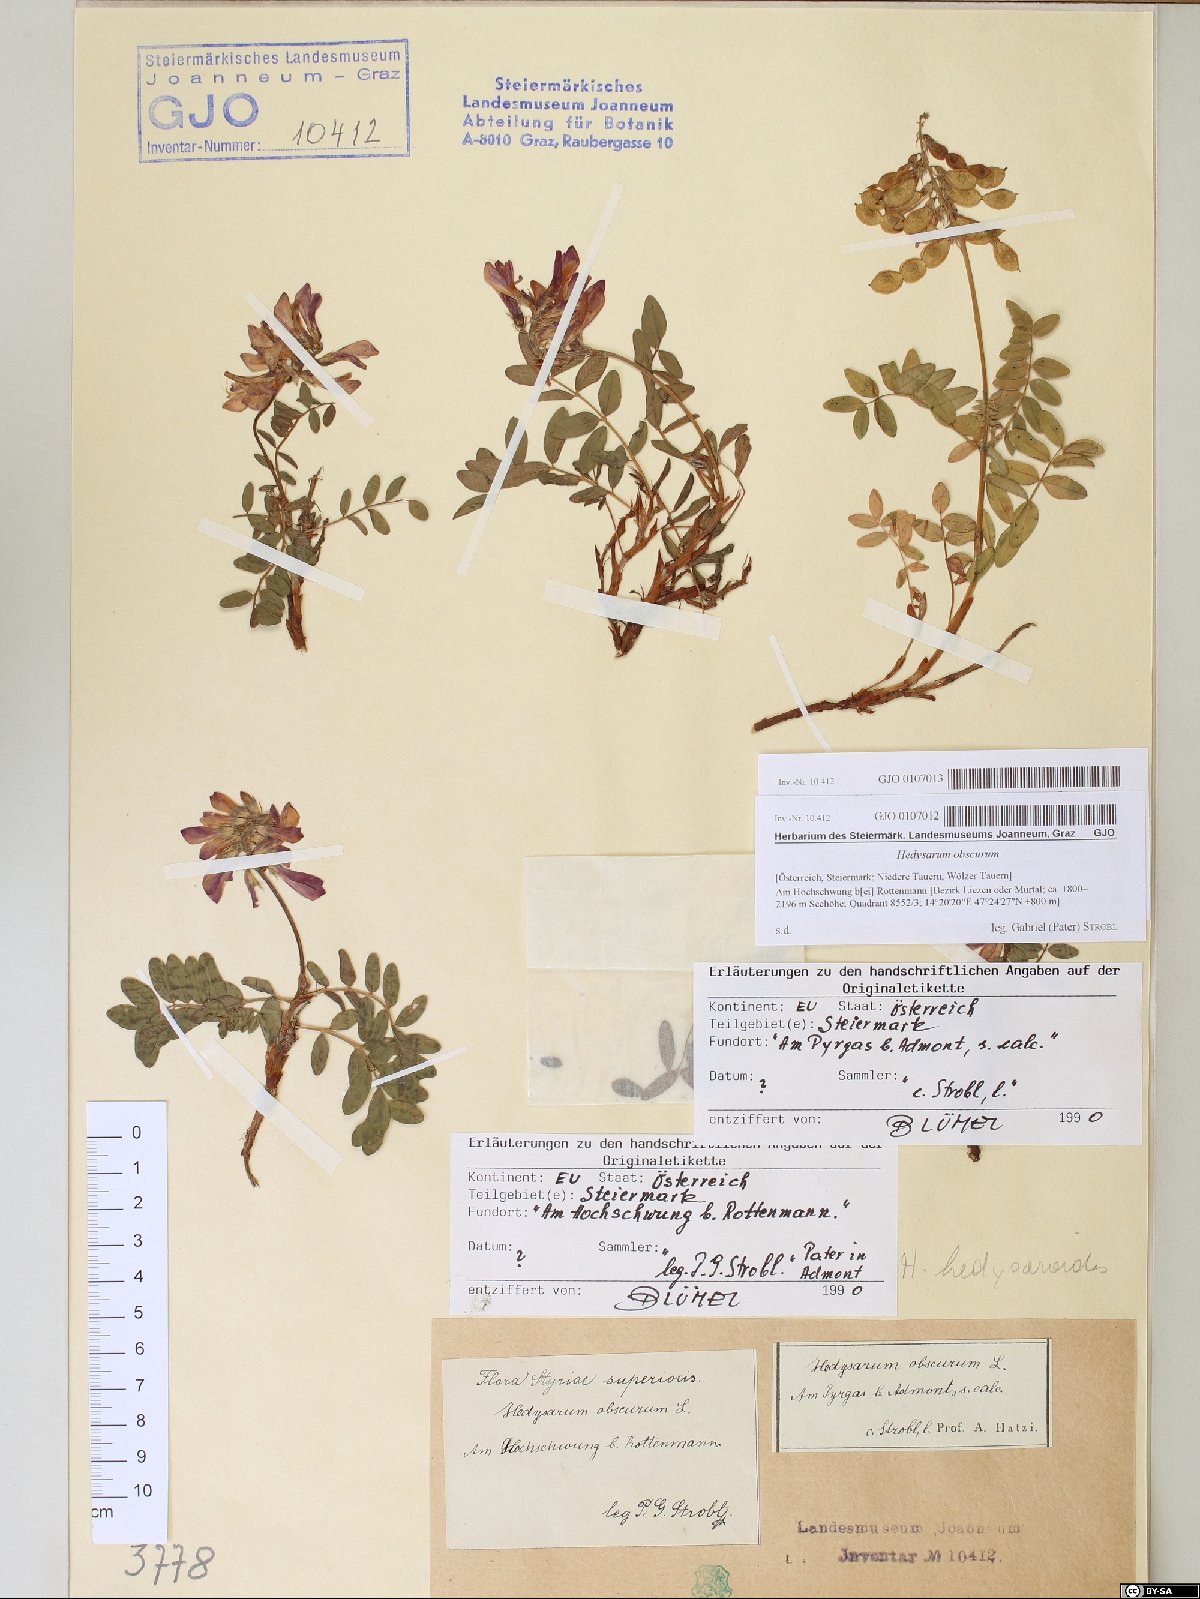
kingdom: Plantae
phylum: Tracheophyta
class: Magnoliopsida
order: Fabales
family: Fabaceae
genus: Hedysarum
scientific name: Hedysarum hedysaroides
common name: Alpine french-honeysuckle
